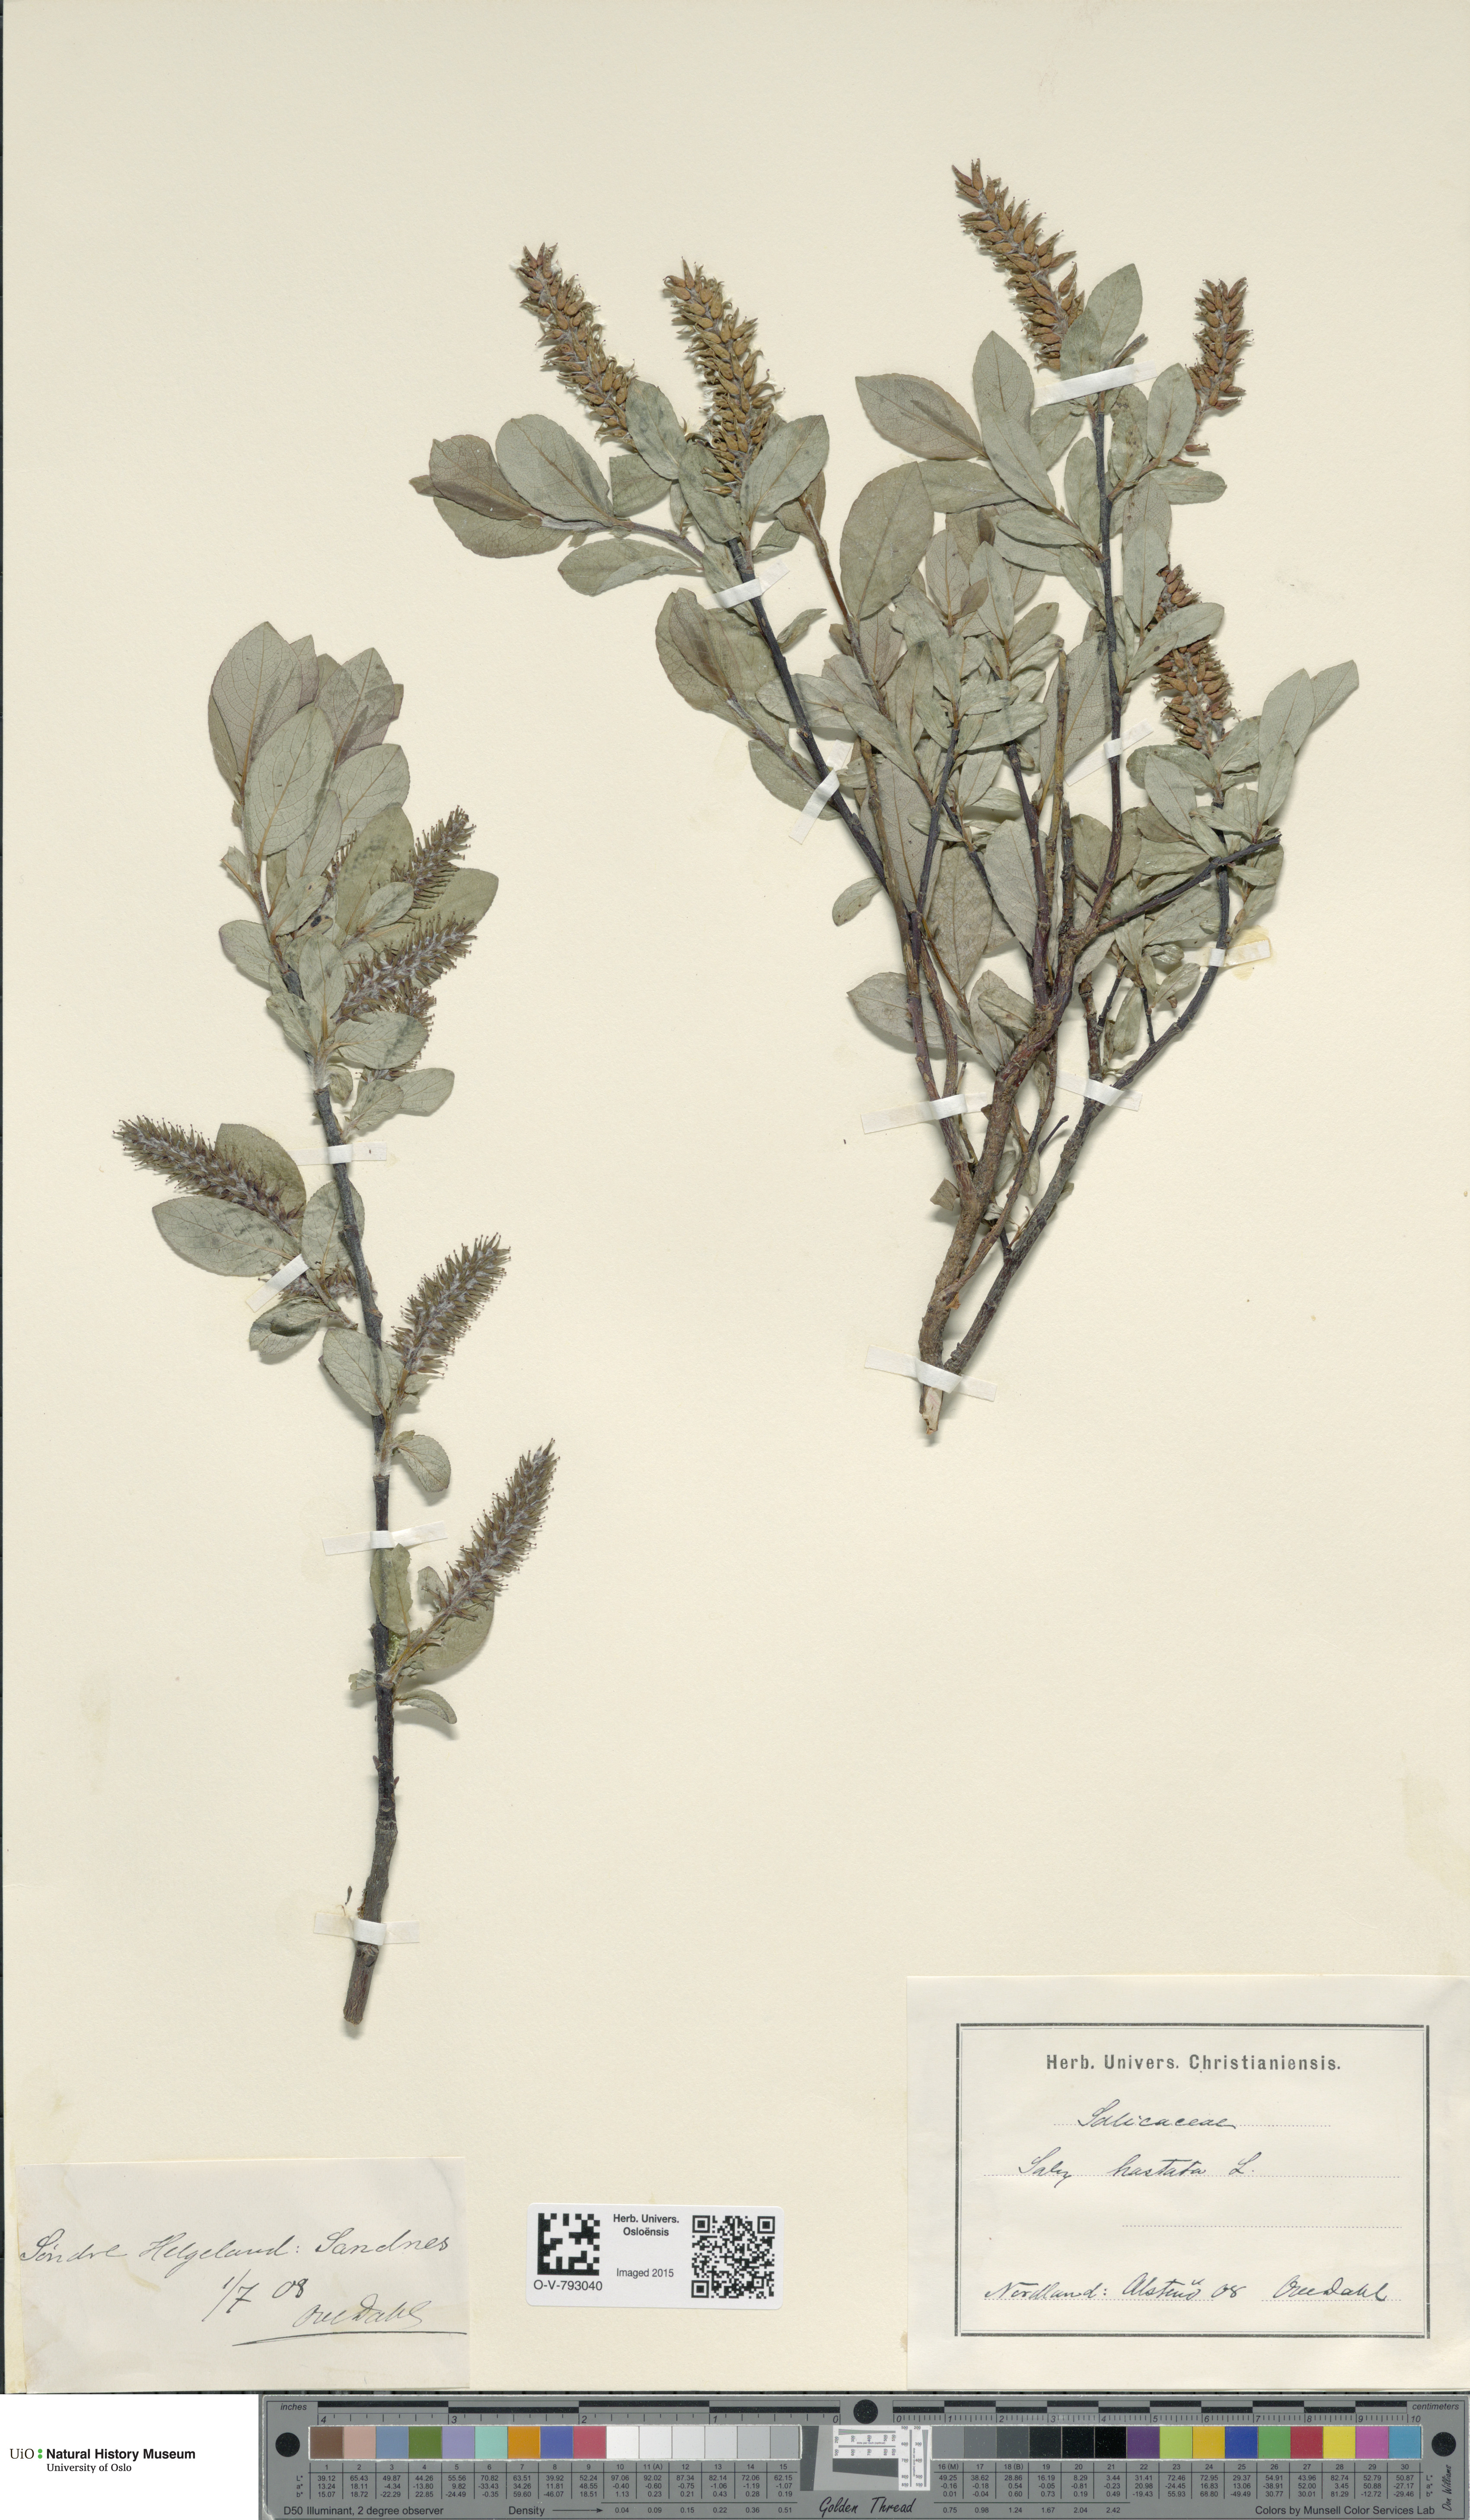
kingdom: Plantae
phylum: Tracheophyta
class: Magnoliopsida
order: Malpighiales
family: Salicaceae
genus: Salix
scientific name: Salix hastata
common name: Halberd willow
